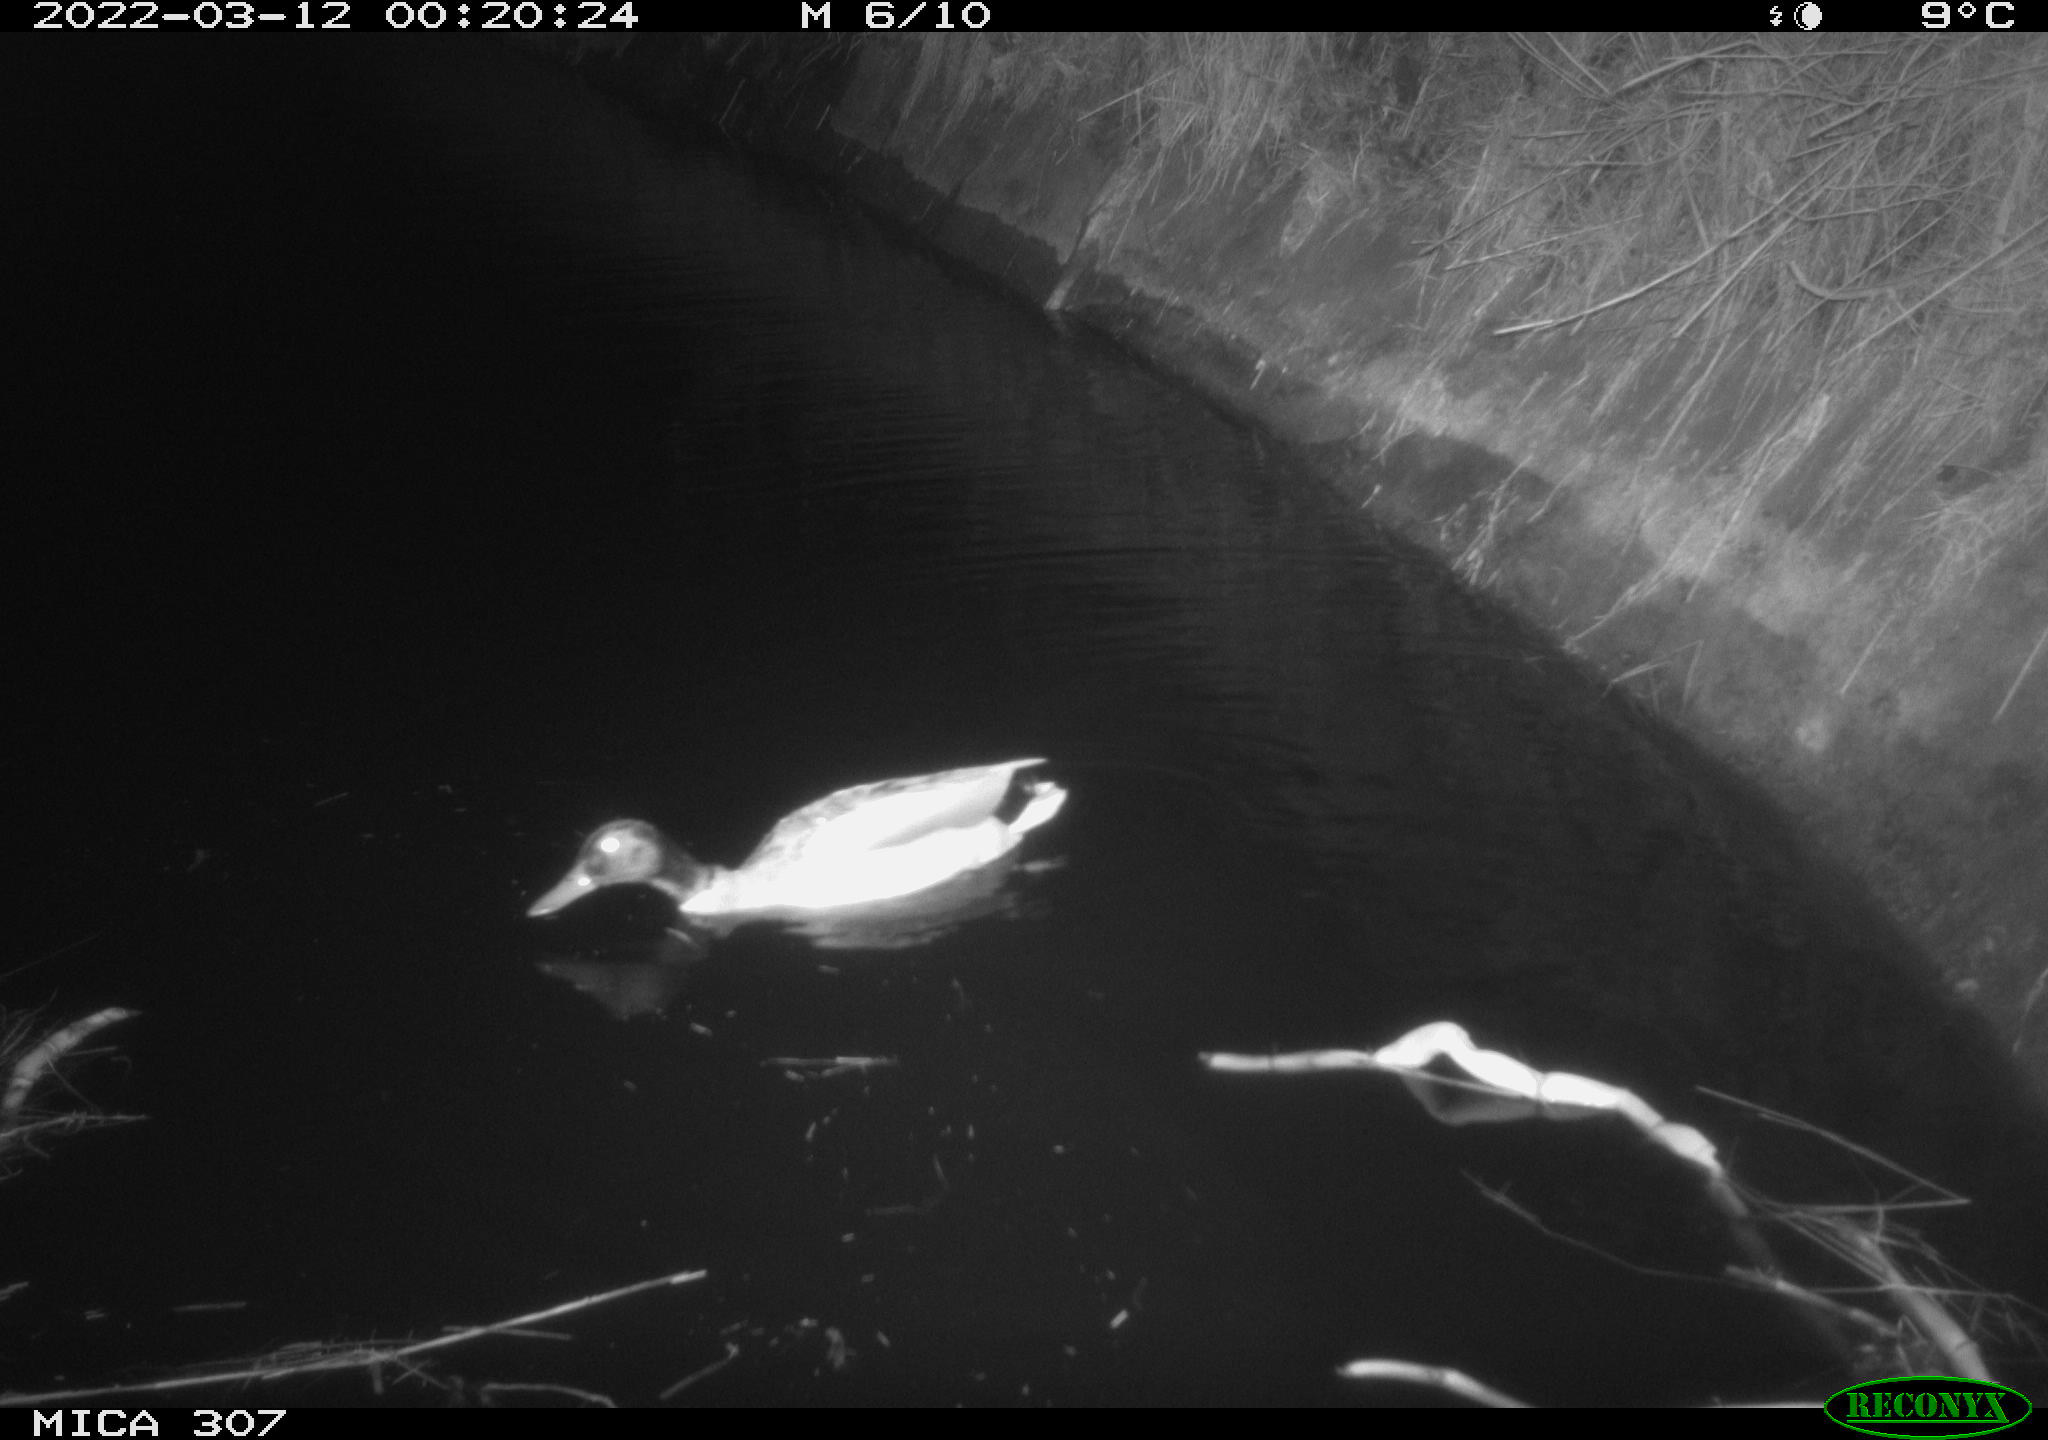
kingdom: Animalia
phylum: Chordata
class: Aves
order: Anseriformes
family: Anatidae
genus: Anas
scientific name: Anas platyrhynchos
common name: Mallard
